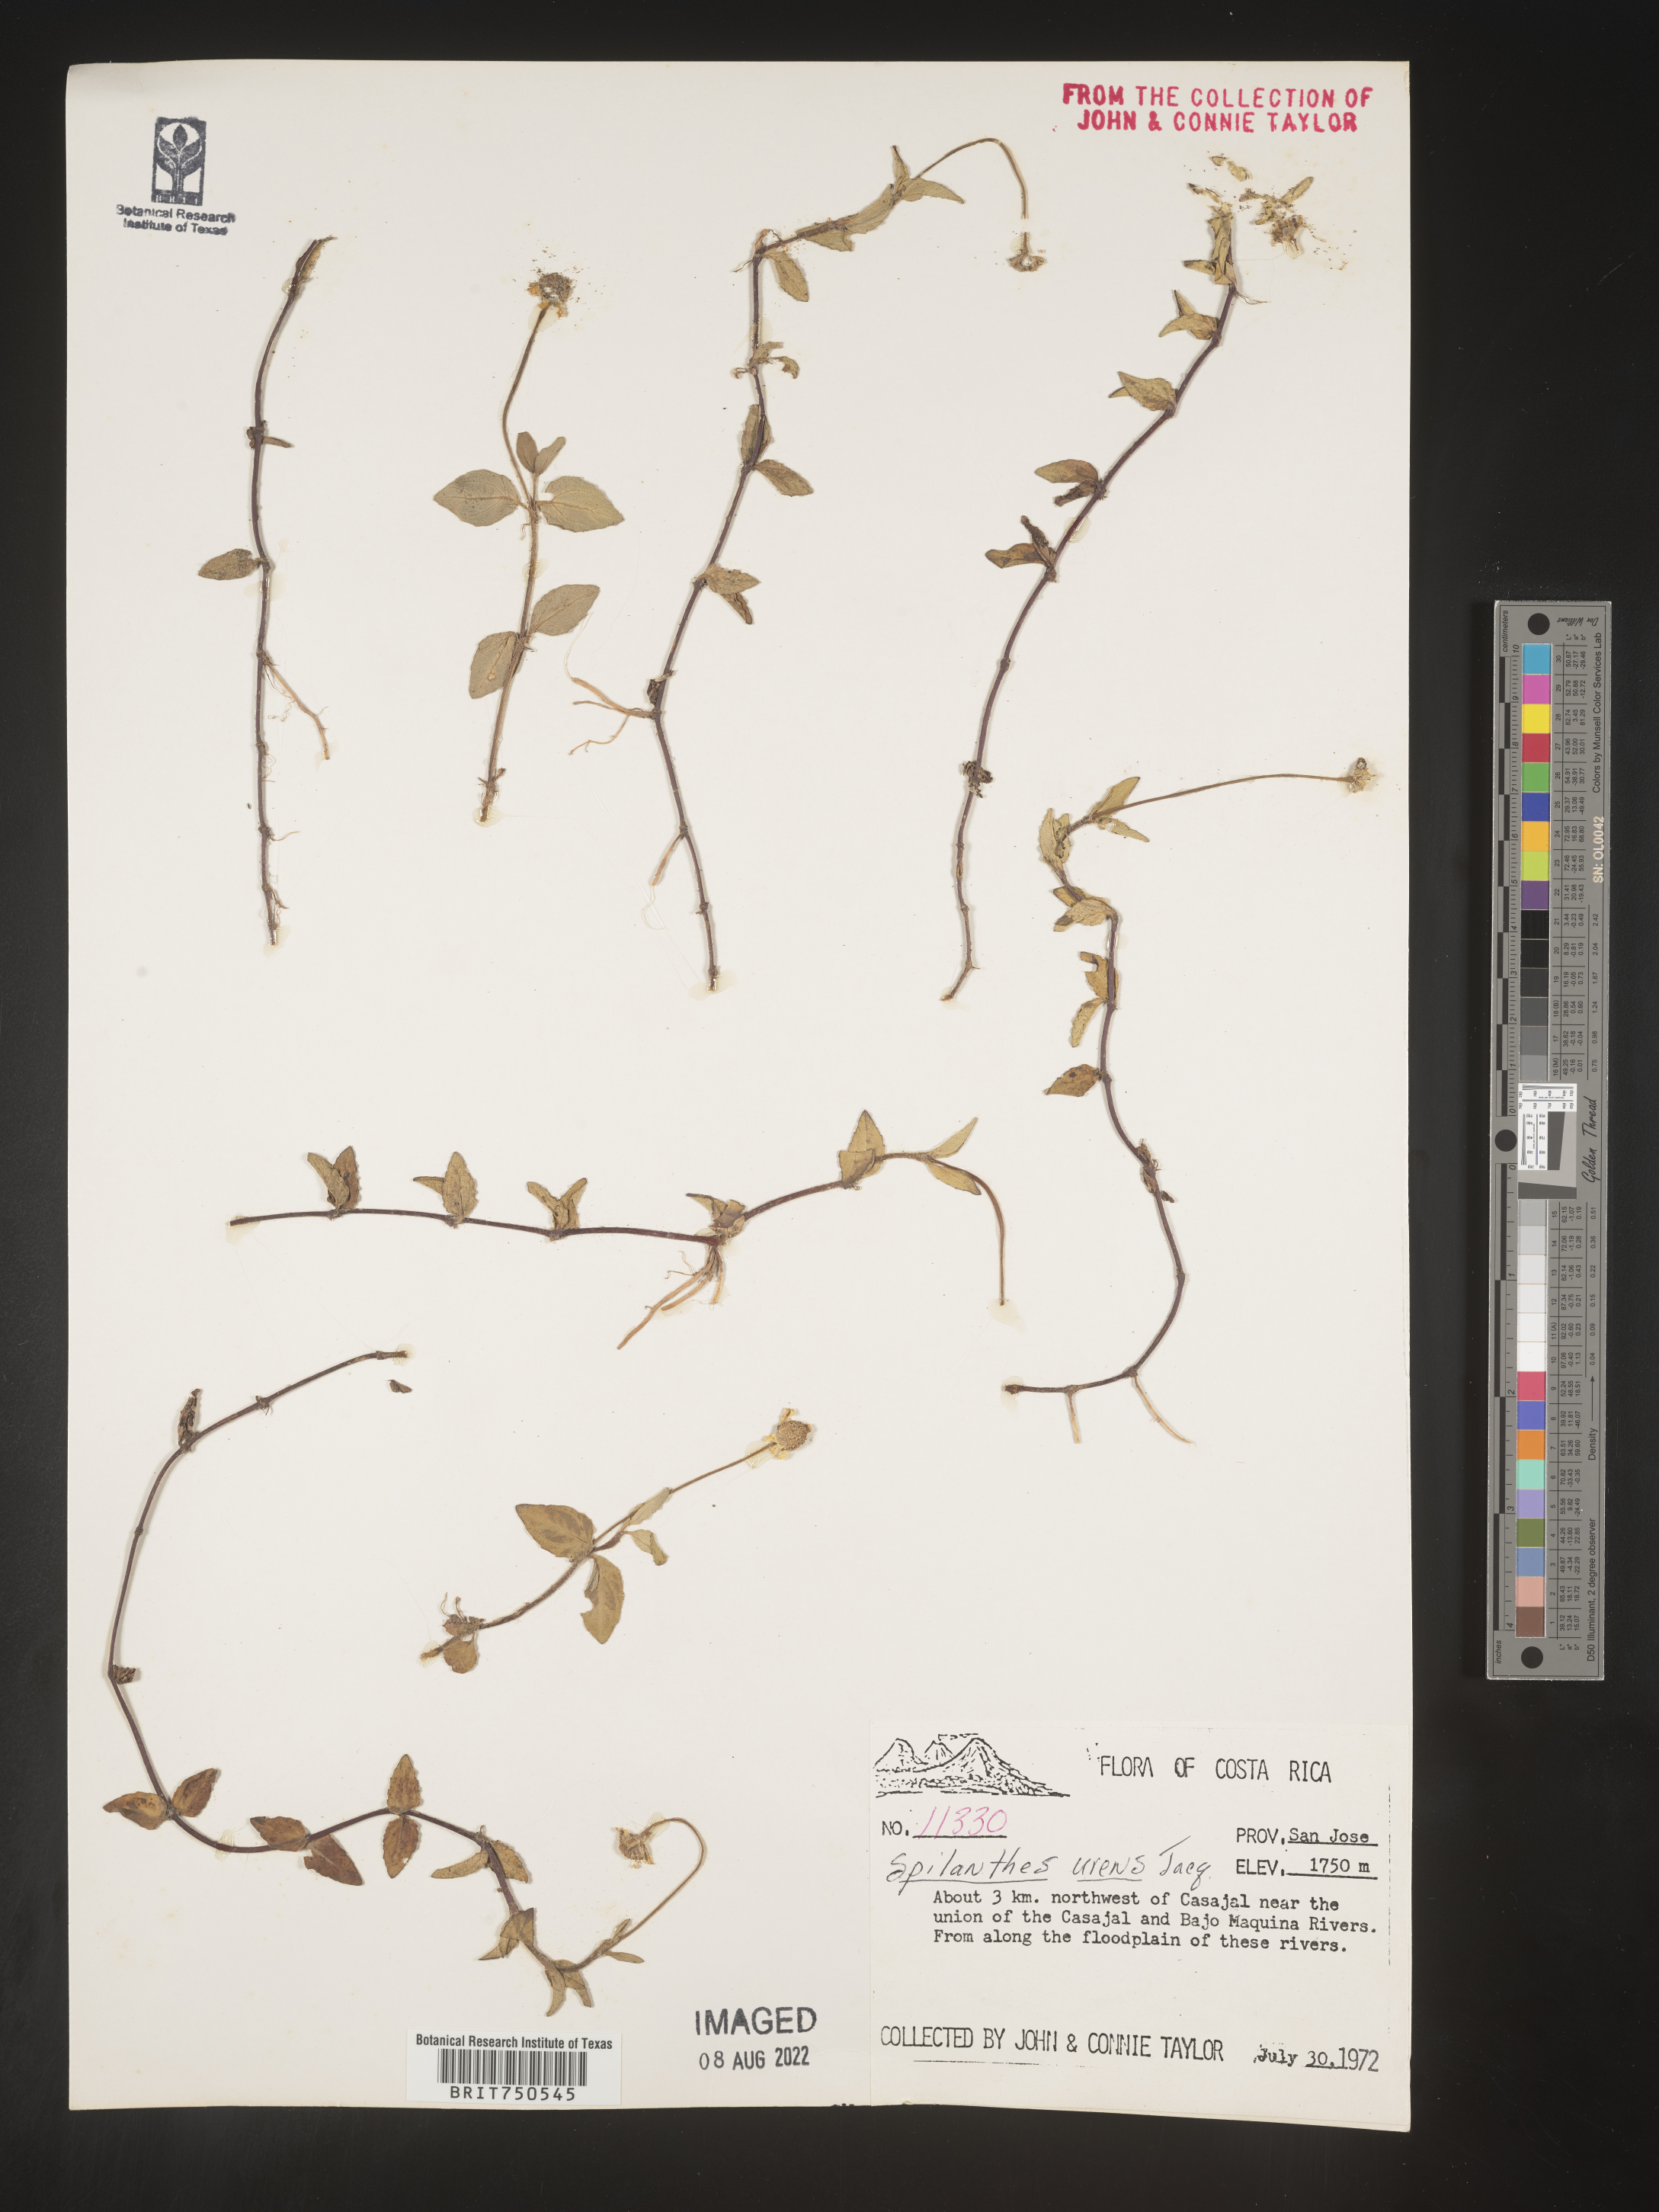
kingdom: Plantae
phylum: Tracheophyta
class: Magnoliopsida
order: Asterales
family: Asteraceae
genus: Spilanthes
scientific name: Spilanthes
